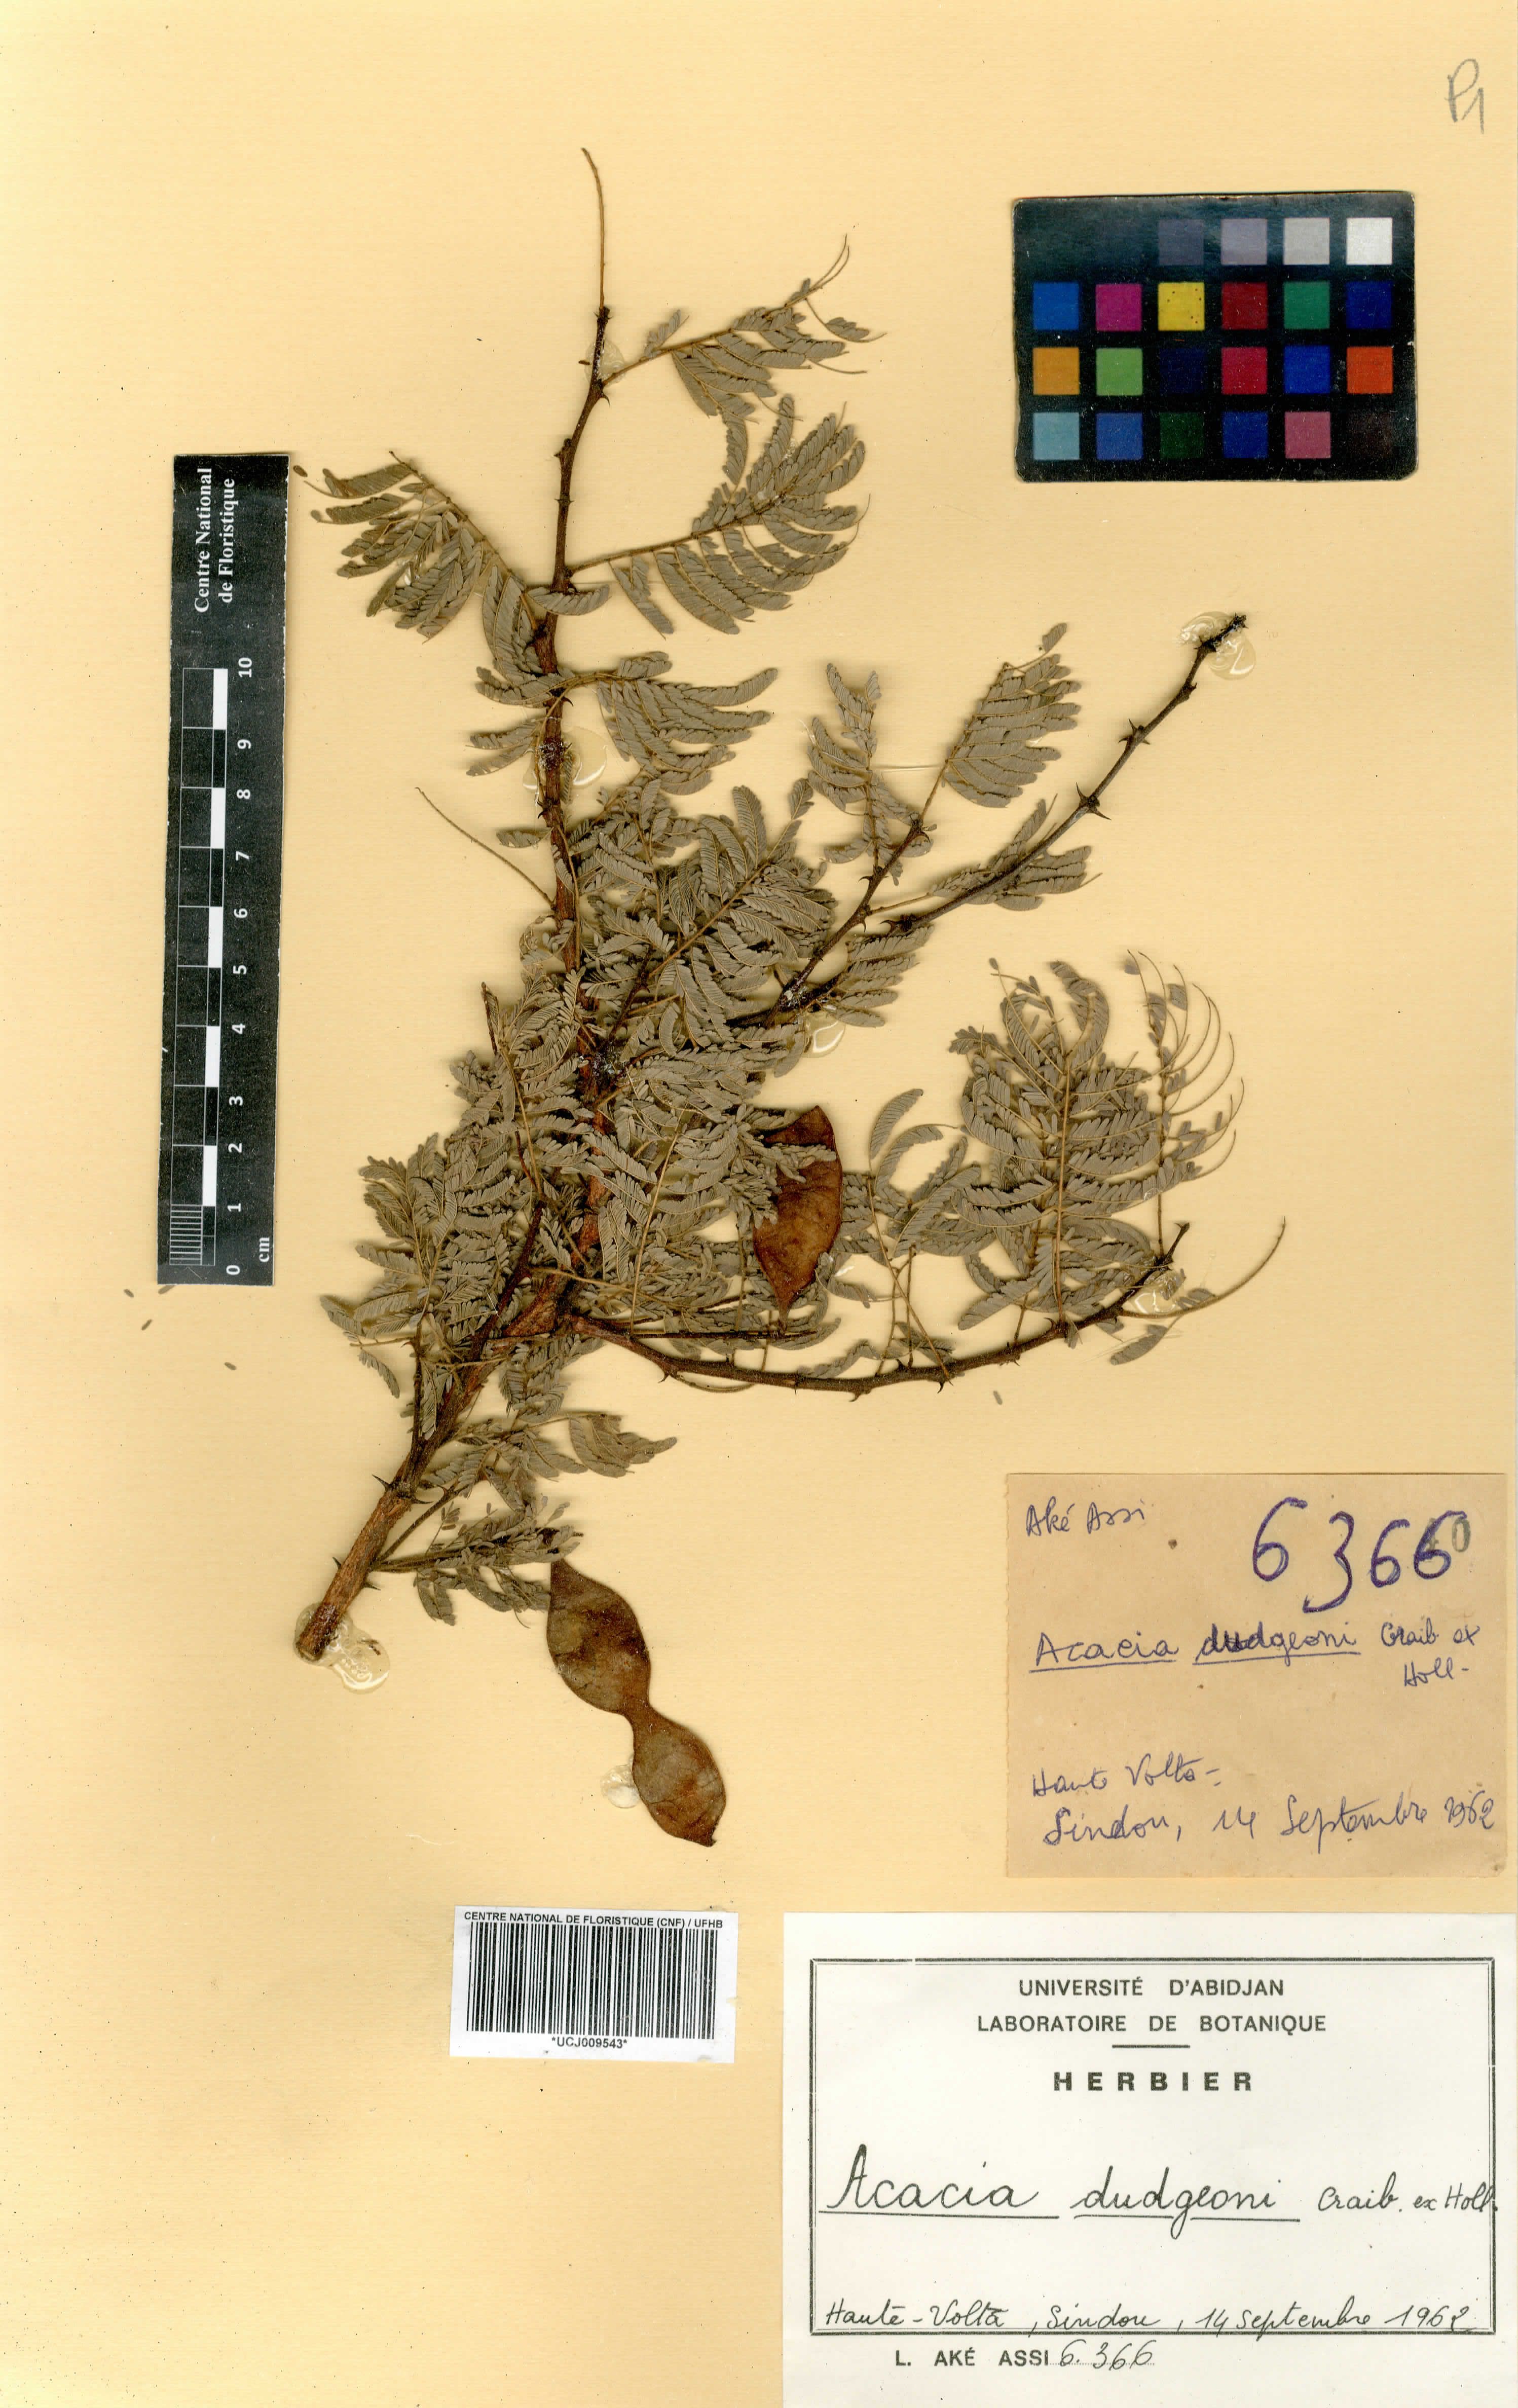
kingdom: Plantae
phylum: Tracheophyta
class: Magnoliopsida
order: Fabales
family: Fabaceae
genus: Senegalia
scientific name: Senegalia dudgeonii
